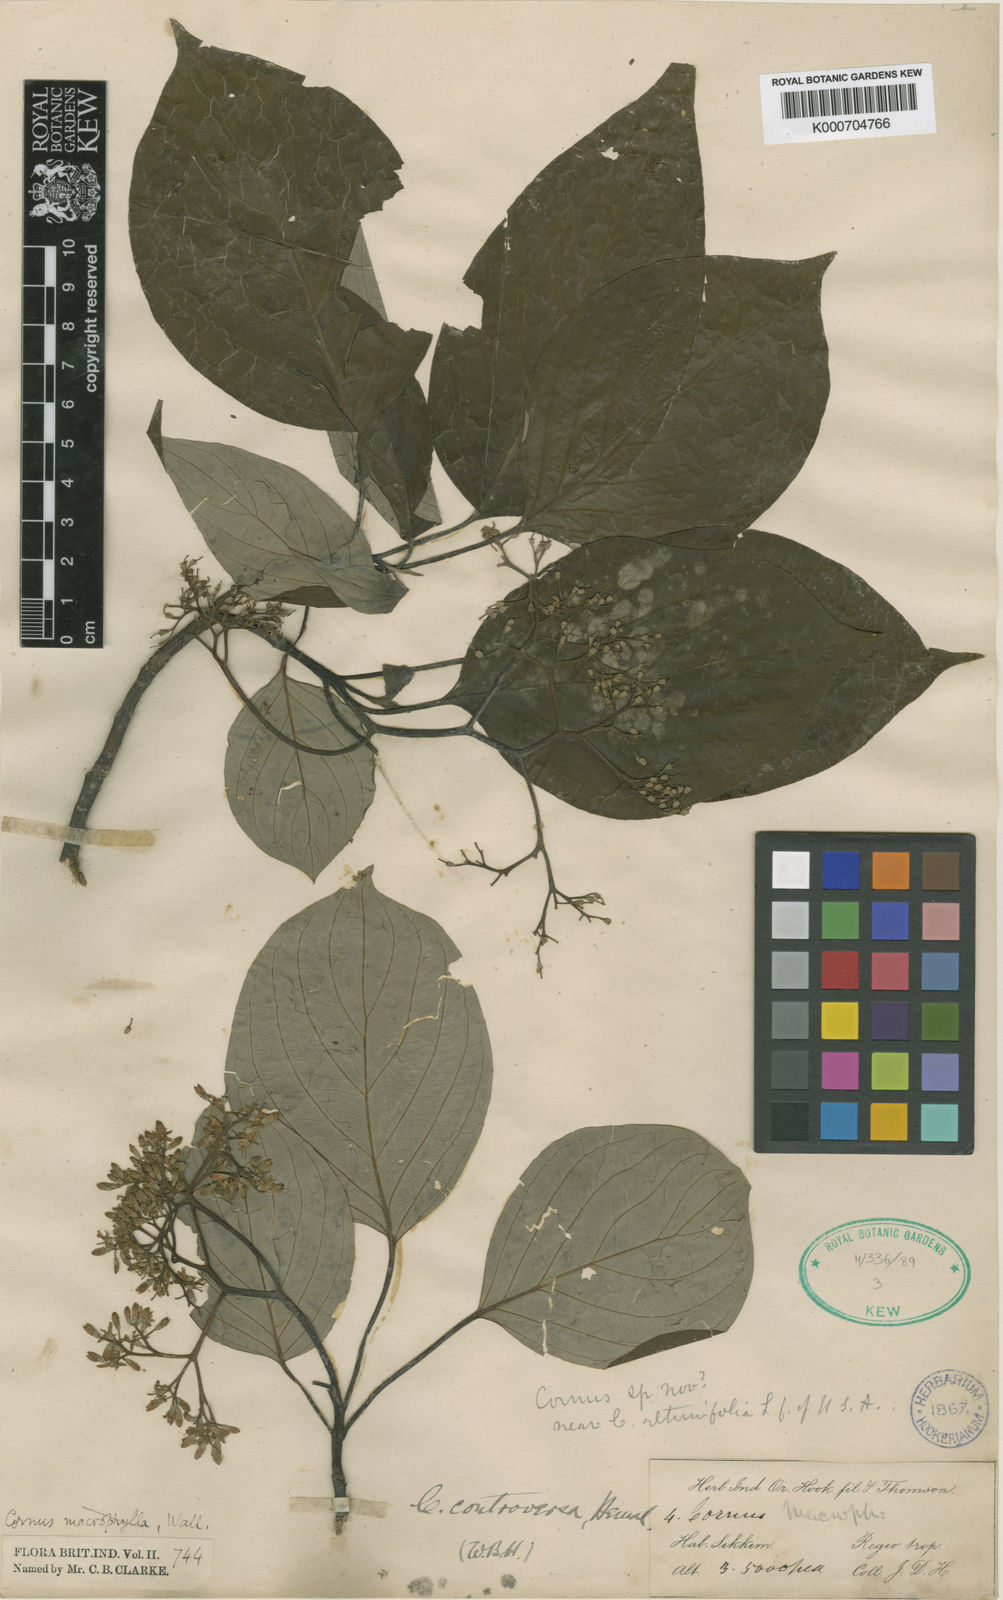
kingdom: Plantae
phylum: Tracheophyta
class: Magnoliopsida
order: Cornales
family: Cornaceae
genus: Cornus
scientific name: Cornus controversa
